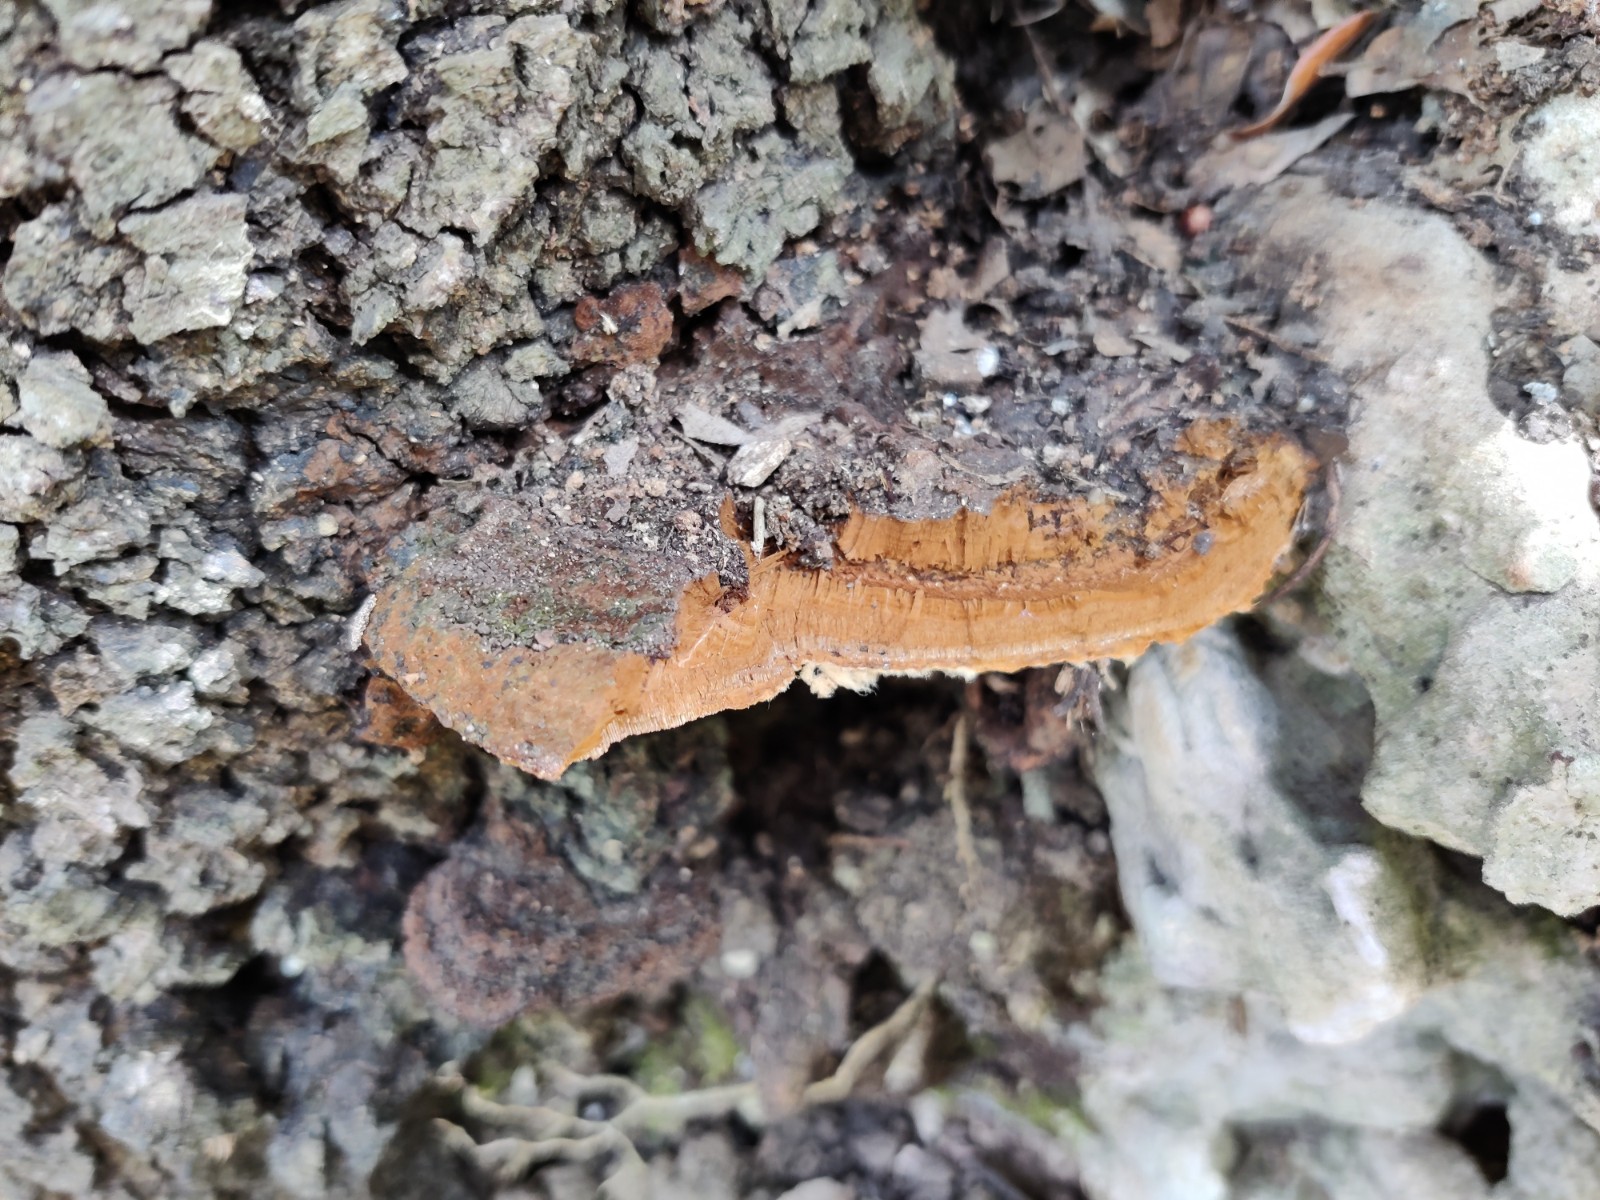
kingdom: Fungi
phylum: Basidiomycota
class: Agaricomycetes
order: Hymenochaetales
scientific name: Hymenochaetales
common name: børstesvampordenen
